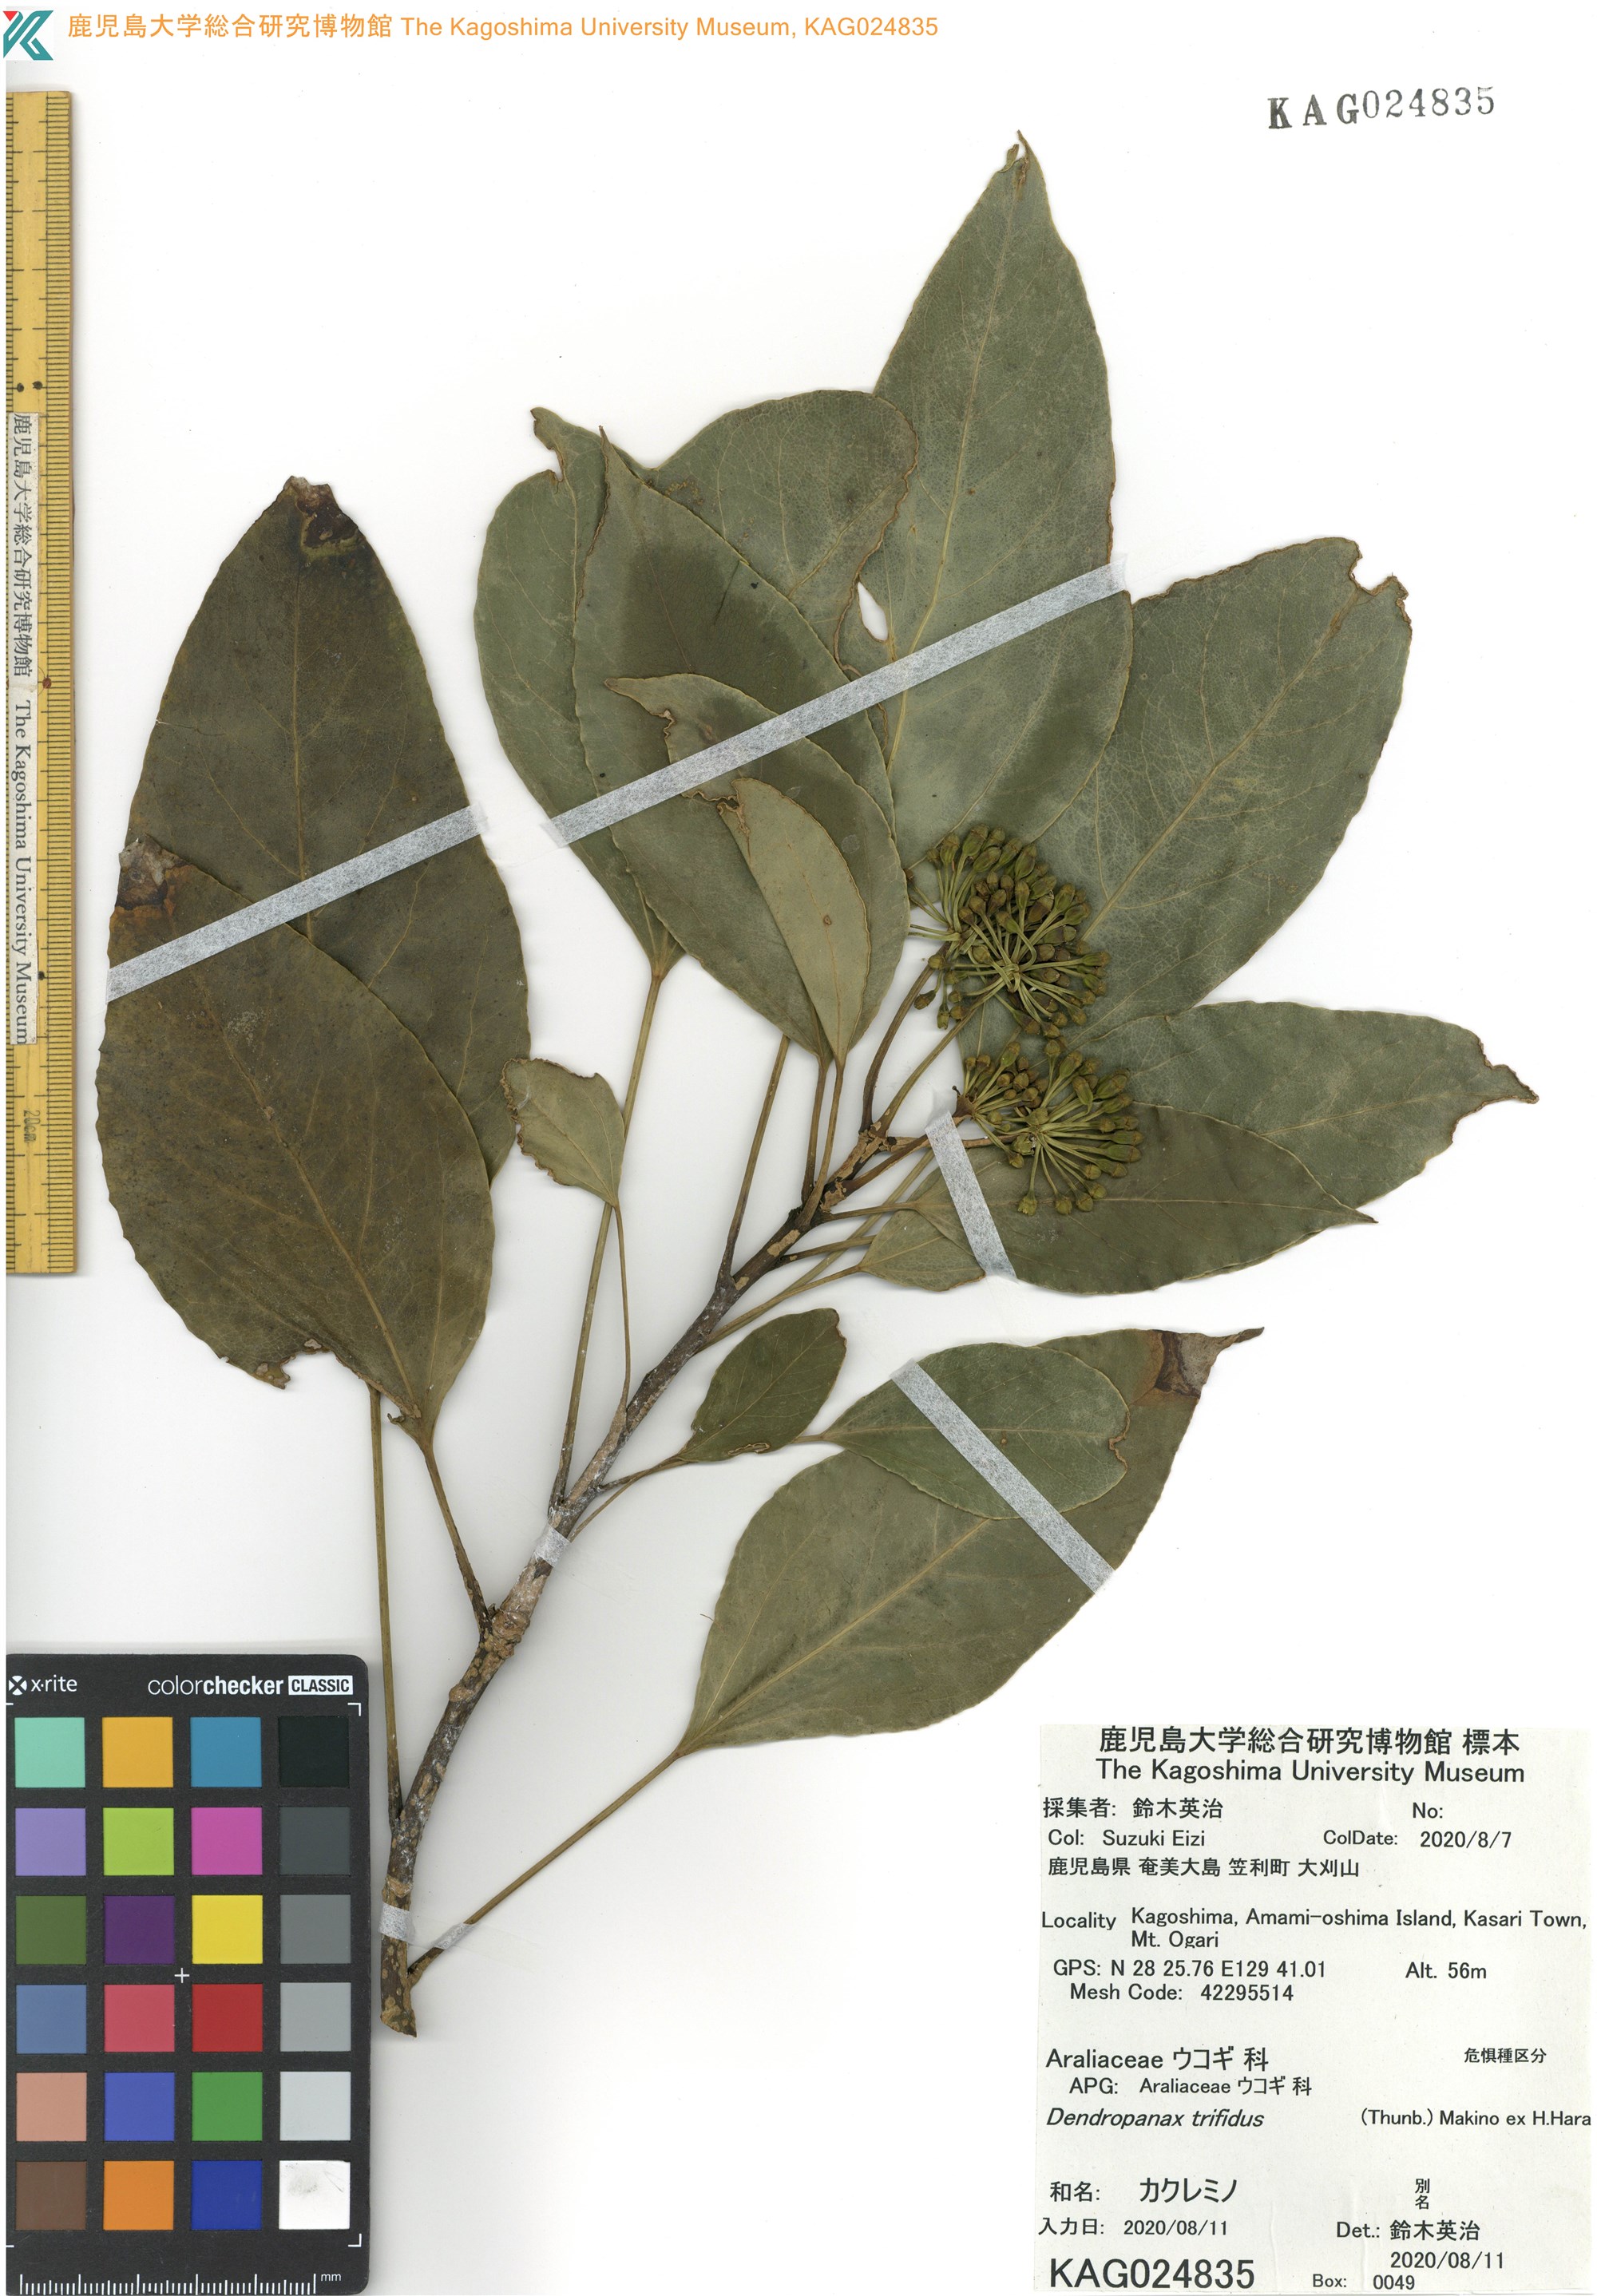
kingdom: Plantae
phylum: Tracheophyta
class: Magnoliopsida
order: Apiales
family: Araliaceae
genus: Dendropanax
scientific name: Dendropanax trifidus
